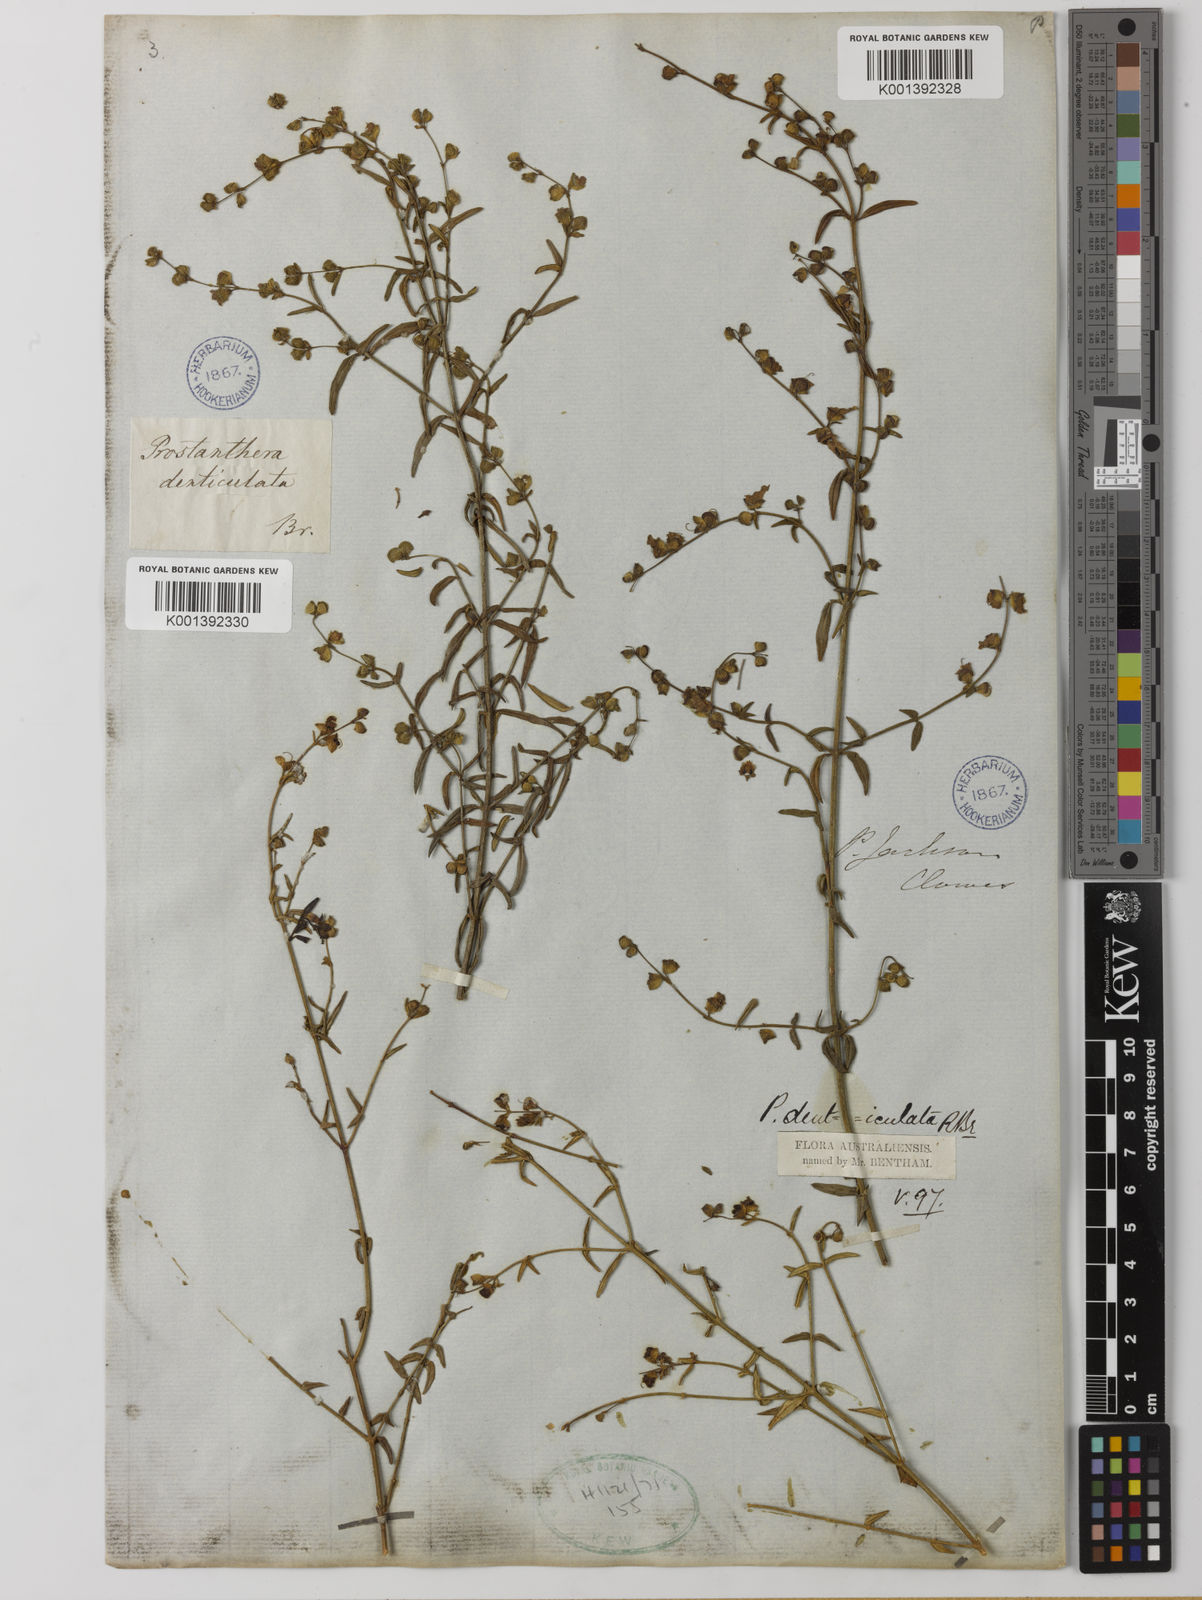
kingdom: Plantae
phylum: Tracheophyta
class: Magnoliopsida
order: Lamiales
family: Lamiaceae
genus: Prostanthera
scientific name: Prostanthera denticulata
